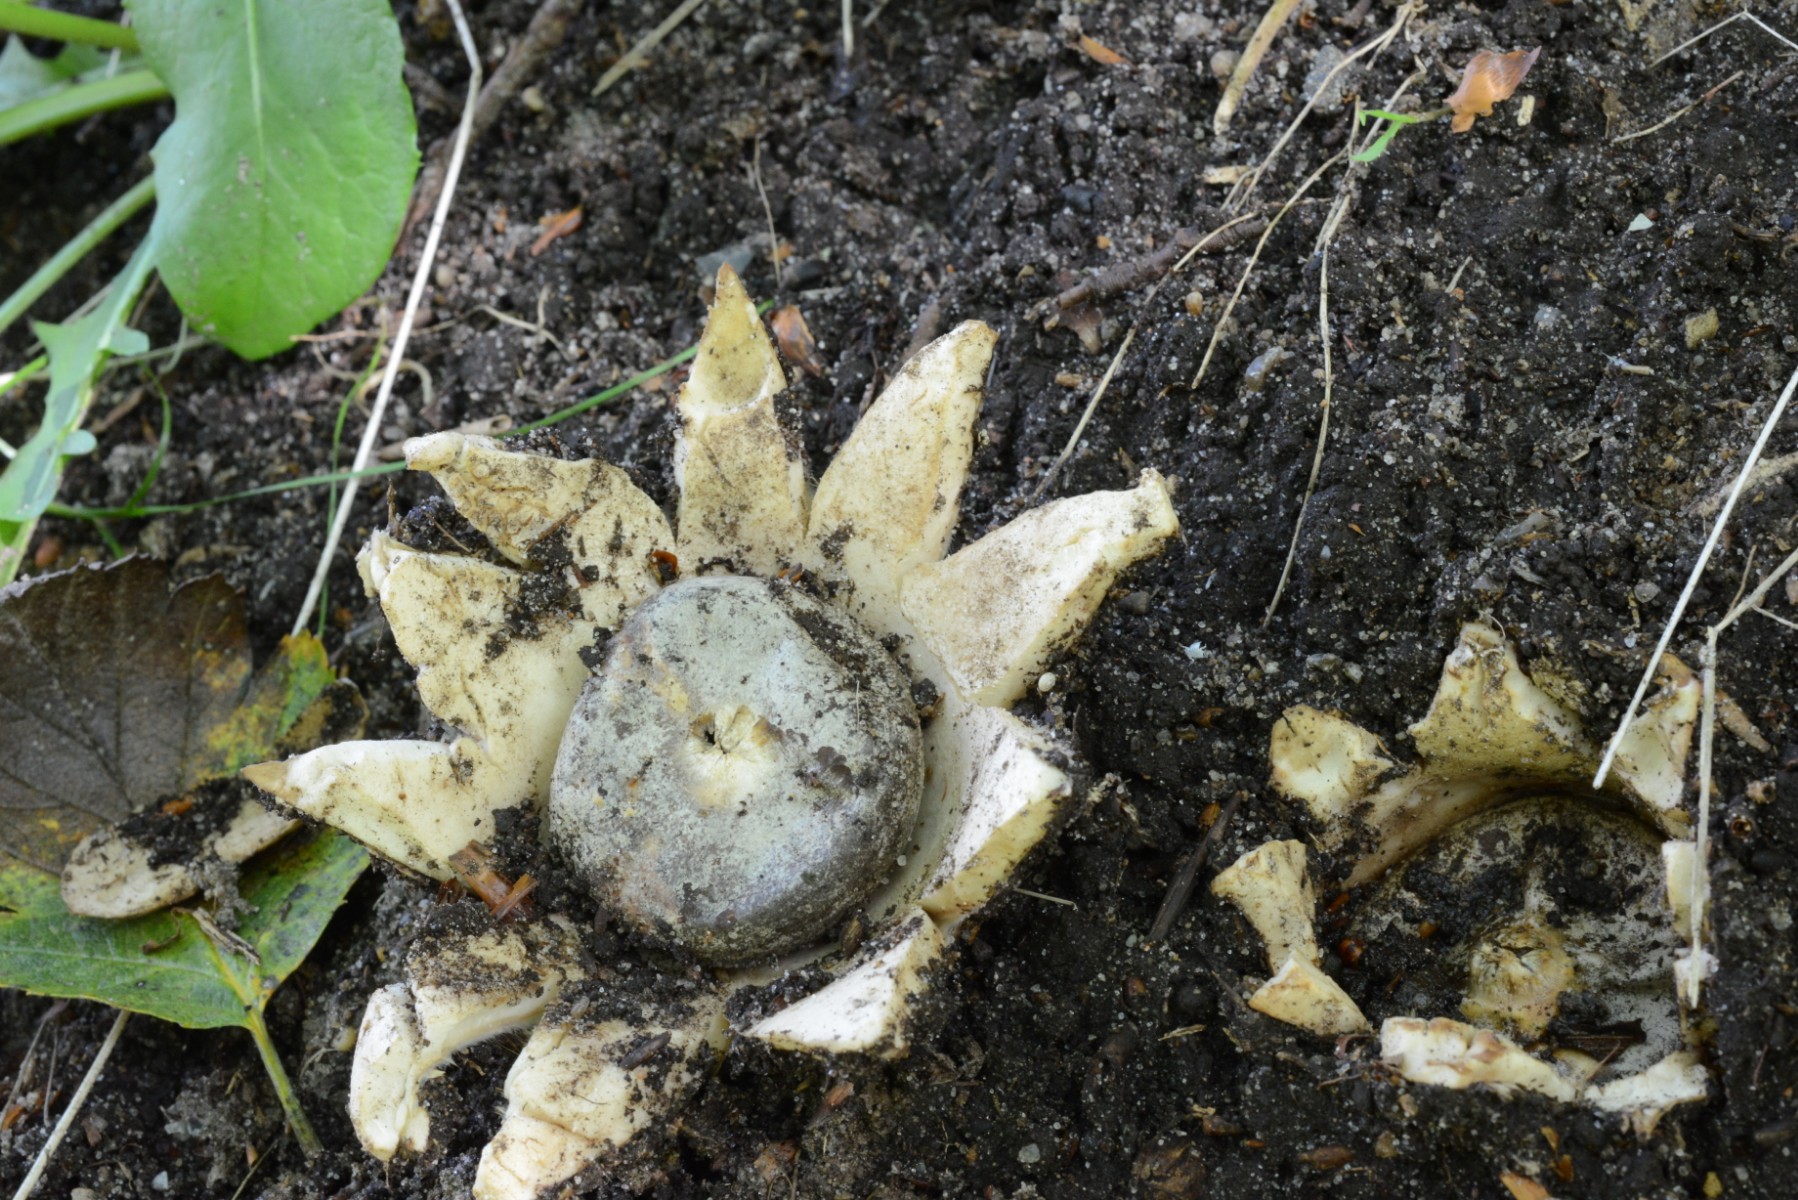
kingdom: Fungi
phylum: Basidiomycota
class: Agaricomycetes
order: Geastrales
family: Geastraceae
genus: Geastrum
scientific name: Geastrum coronatum
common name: mørk stjernebold
